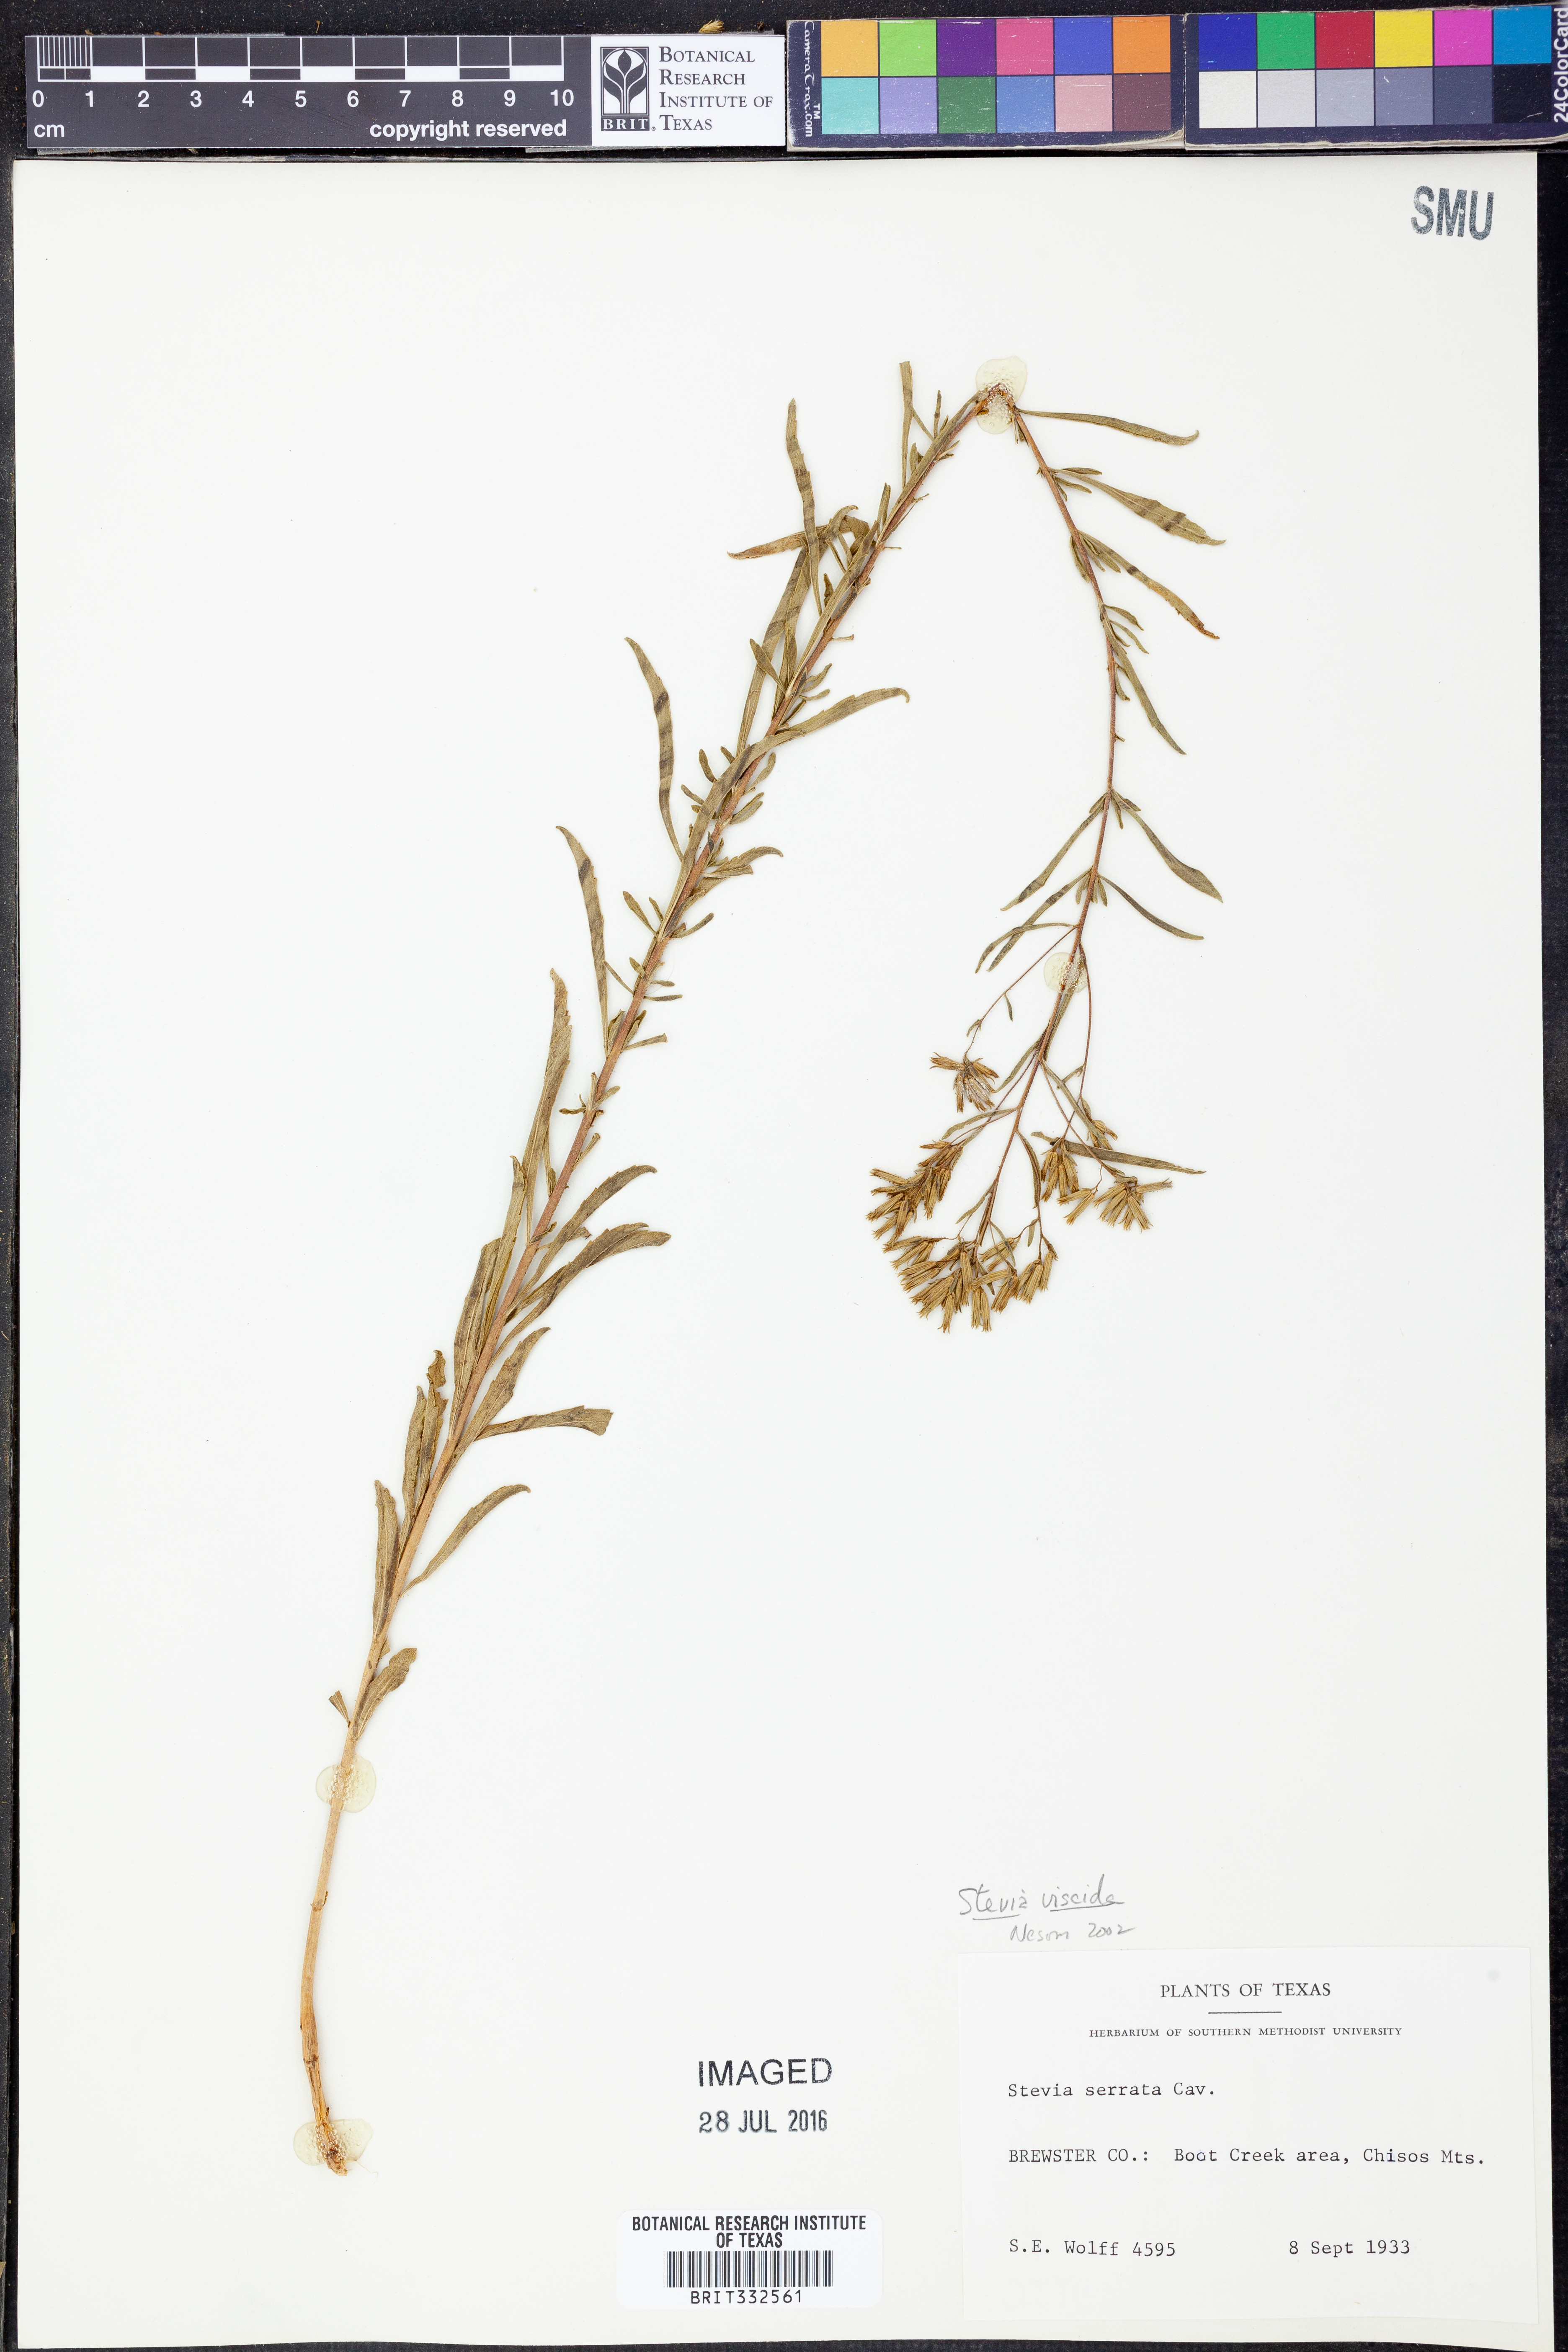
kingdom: Plantae
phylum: Tracheophyta
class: Magnoliopsida
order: Asterales
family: Asteraceae
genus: Stevia
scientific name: Stevia viscida
